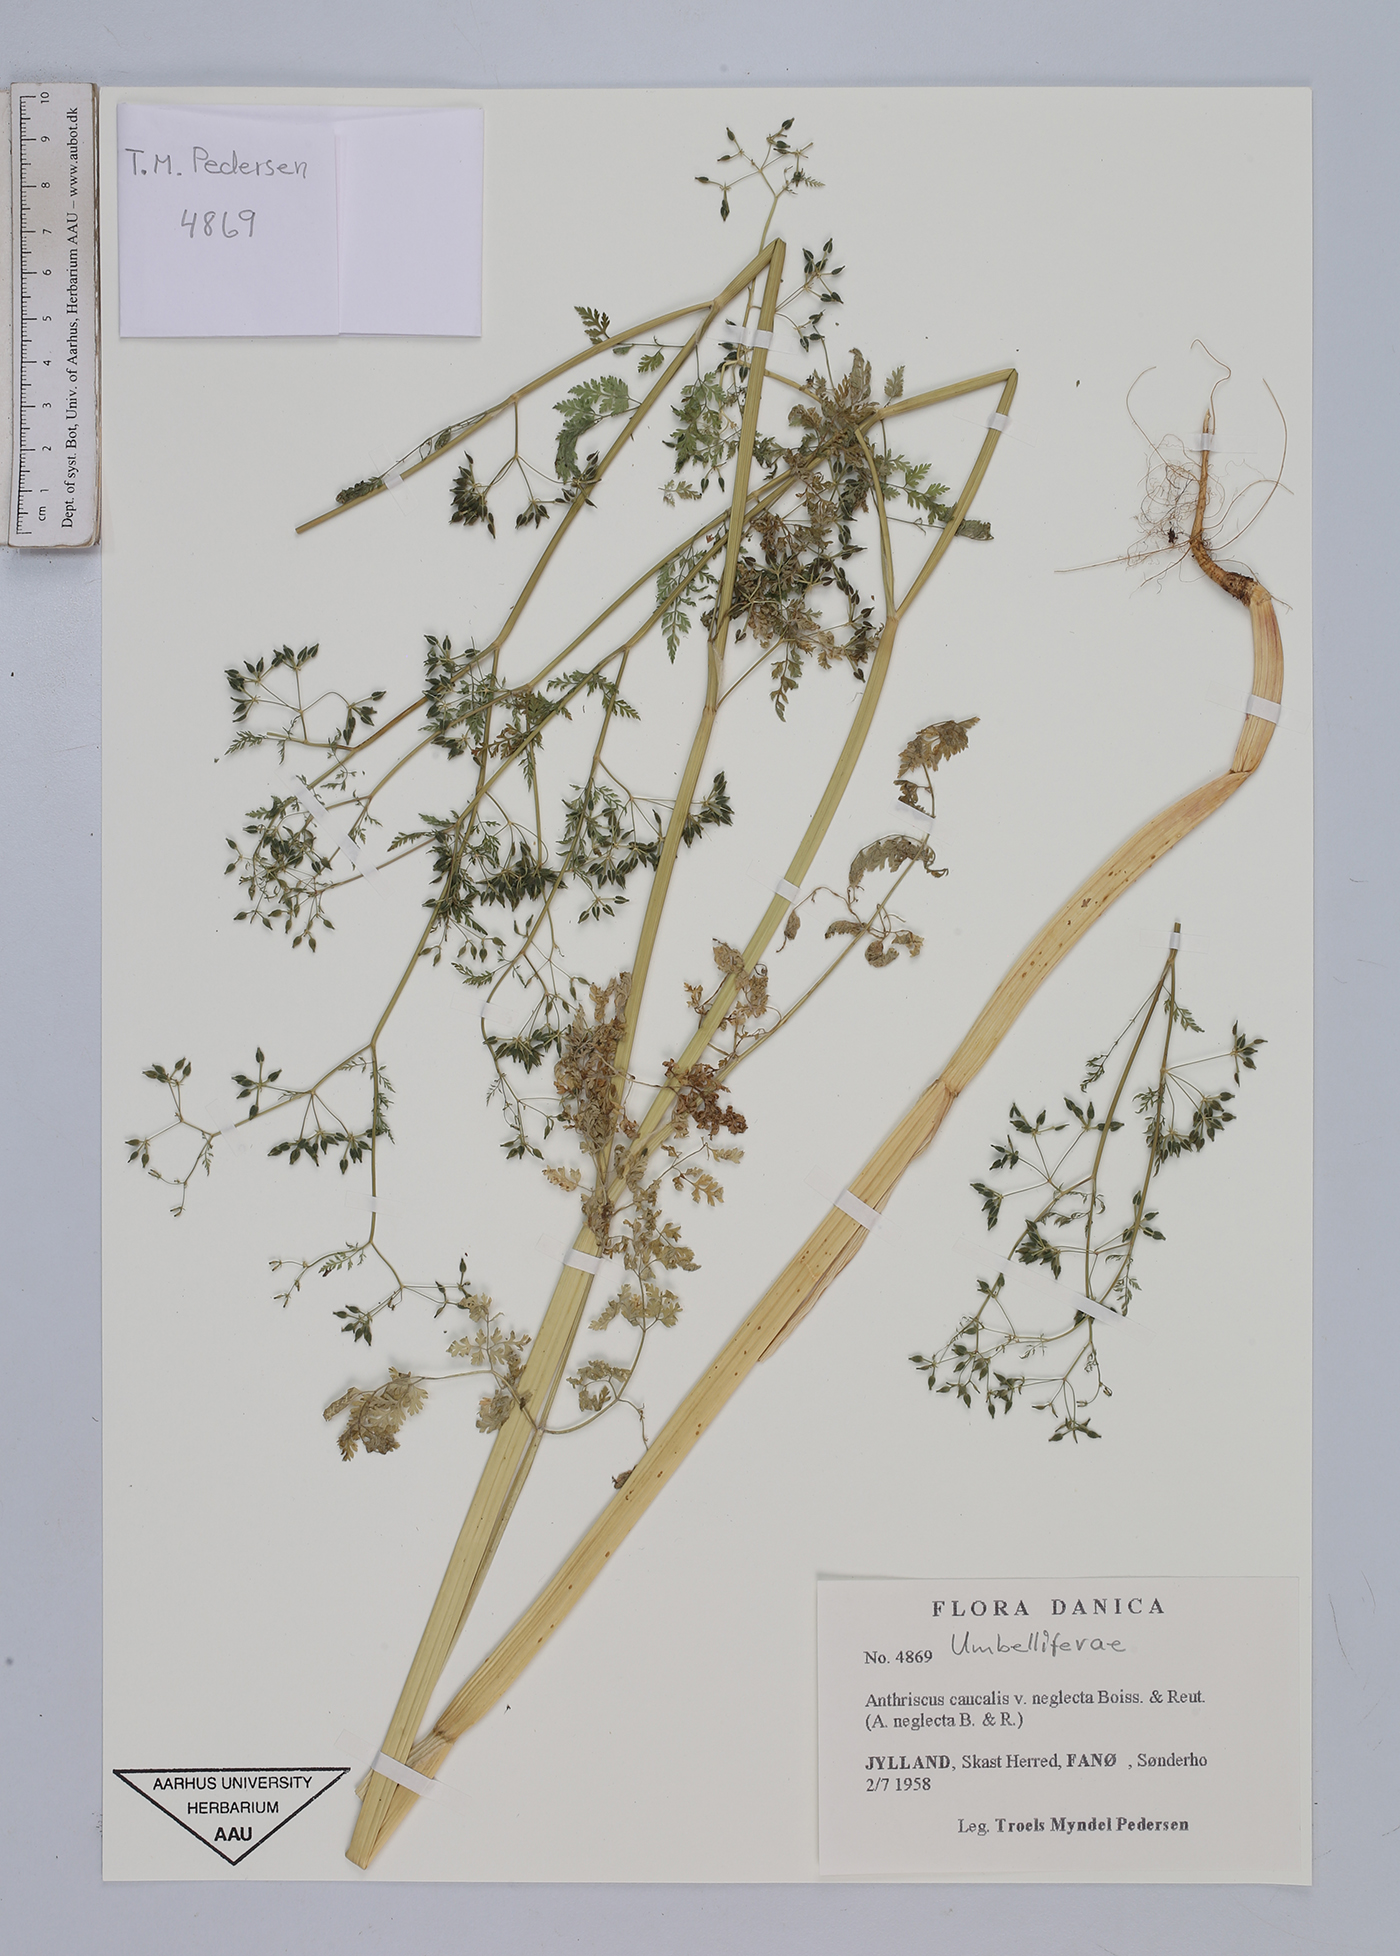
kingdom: Plantae
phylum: Tracheophyta
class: Magnoliopsida
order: Apiales
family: Apiaceae
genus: Anthriscus
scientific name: Anthriscus caucalis
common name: Bur chervil
